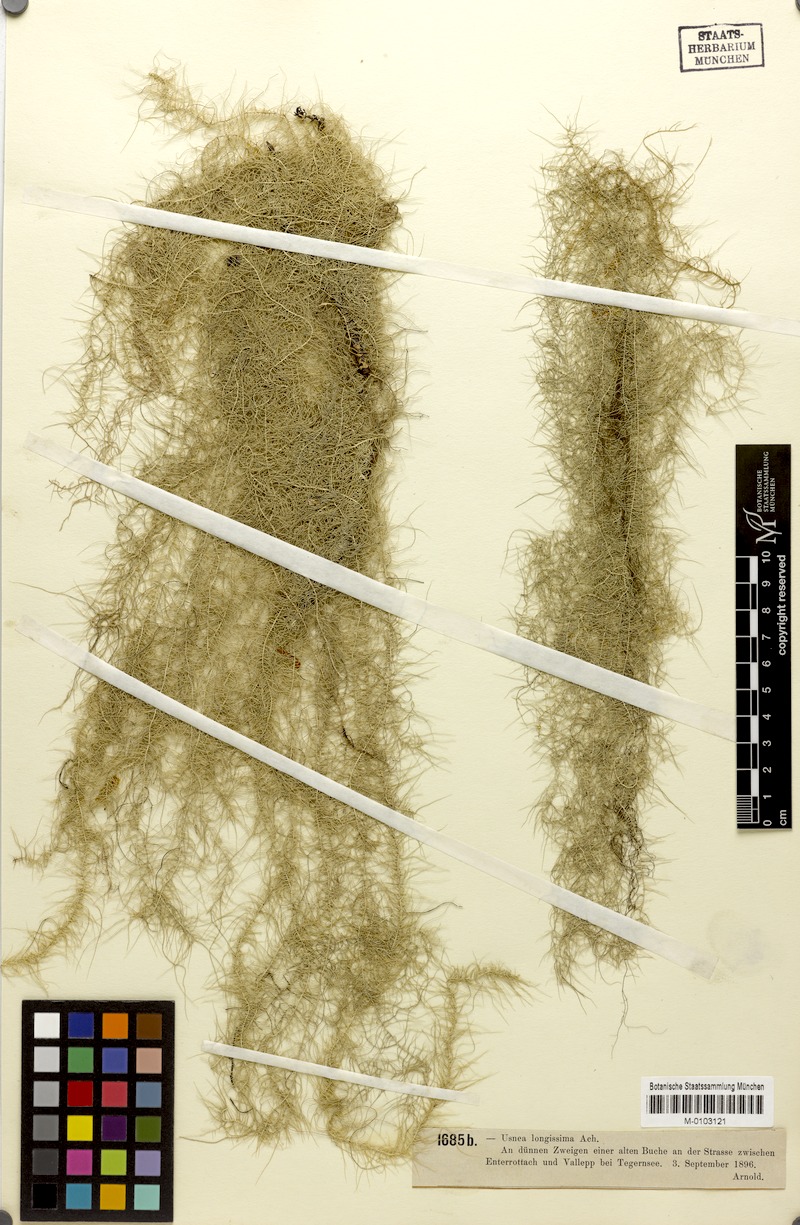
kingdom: Fungi
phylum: Ascomycota
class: Lecanoromycetes
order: Lecanorales
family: Parmeliaceae
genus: Dolichousnea
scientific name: Dolichousnea longissima
